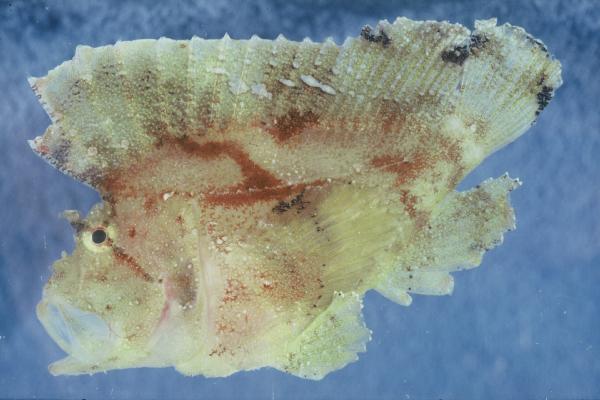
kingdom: Animalia
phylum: Chordata
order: Scorpaeniformes
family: Scorpaenidae
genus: Taenianotus
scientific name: Taenianotus triacanthus
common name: Leaf scorpionfish
